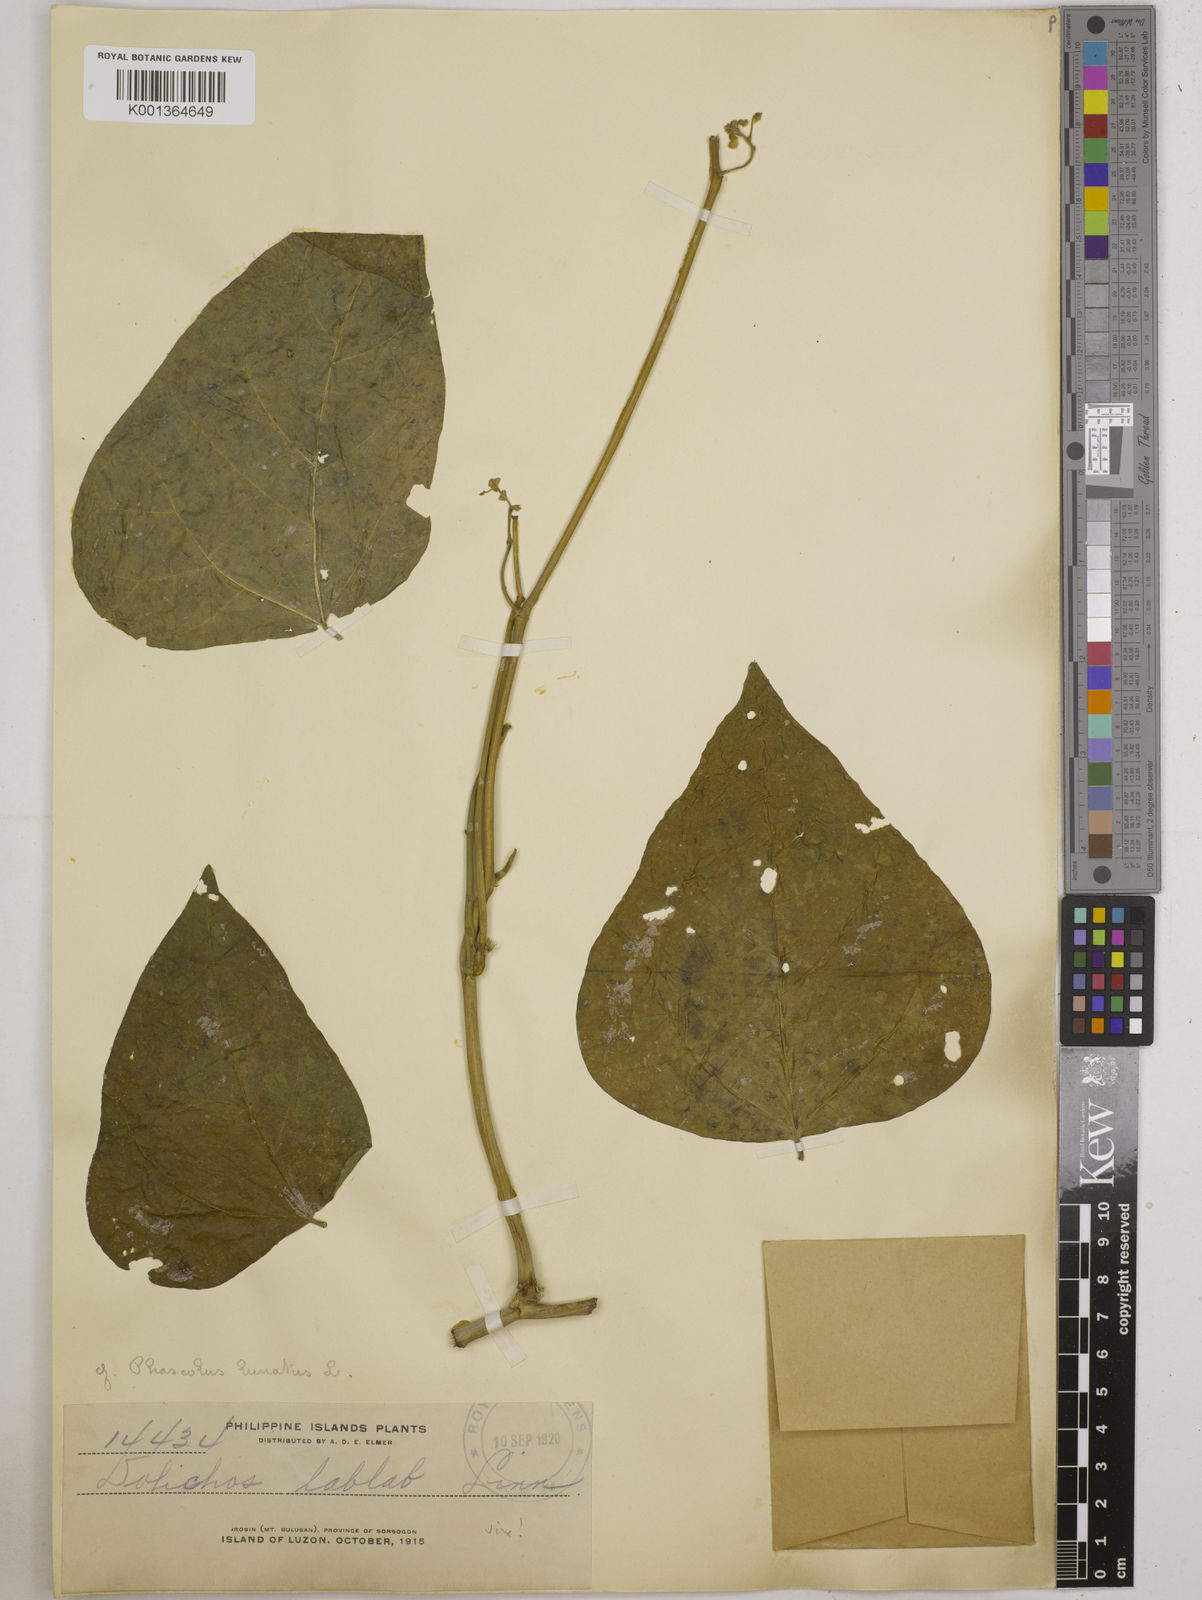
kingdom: Plantae
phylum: Tracheophyta
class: Magnoliopsida
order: Fabales
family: Fabaceae
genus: Phaseolus
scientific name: Phaseolus lunatus
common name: Sieva bean
